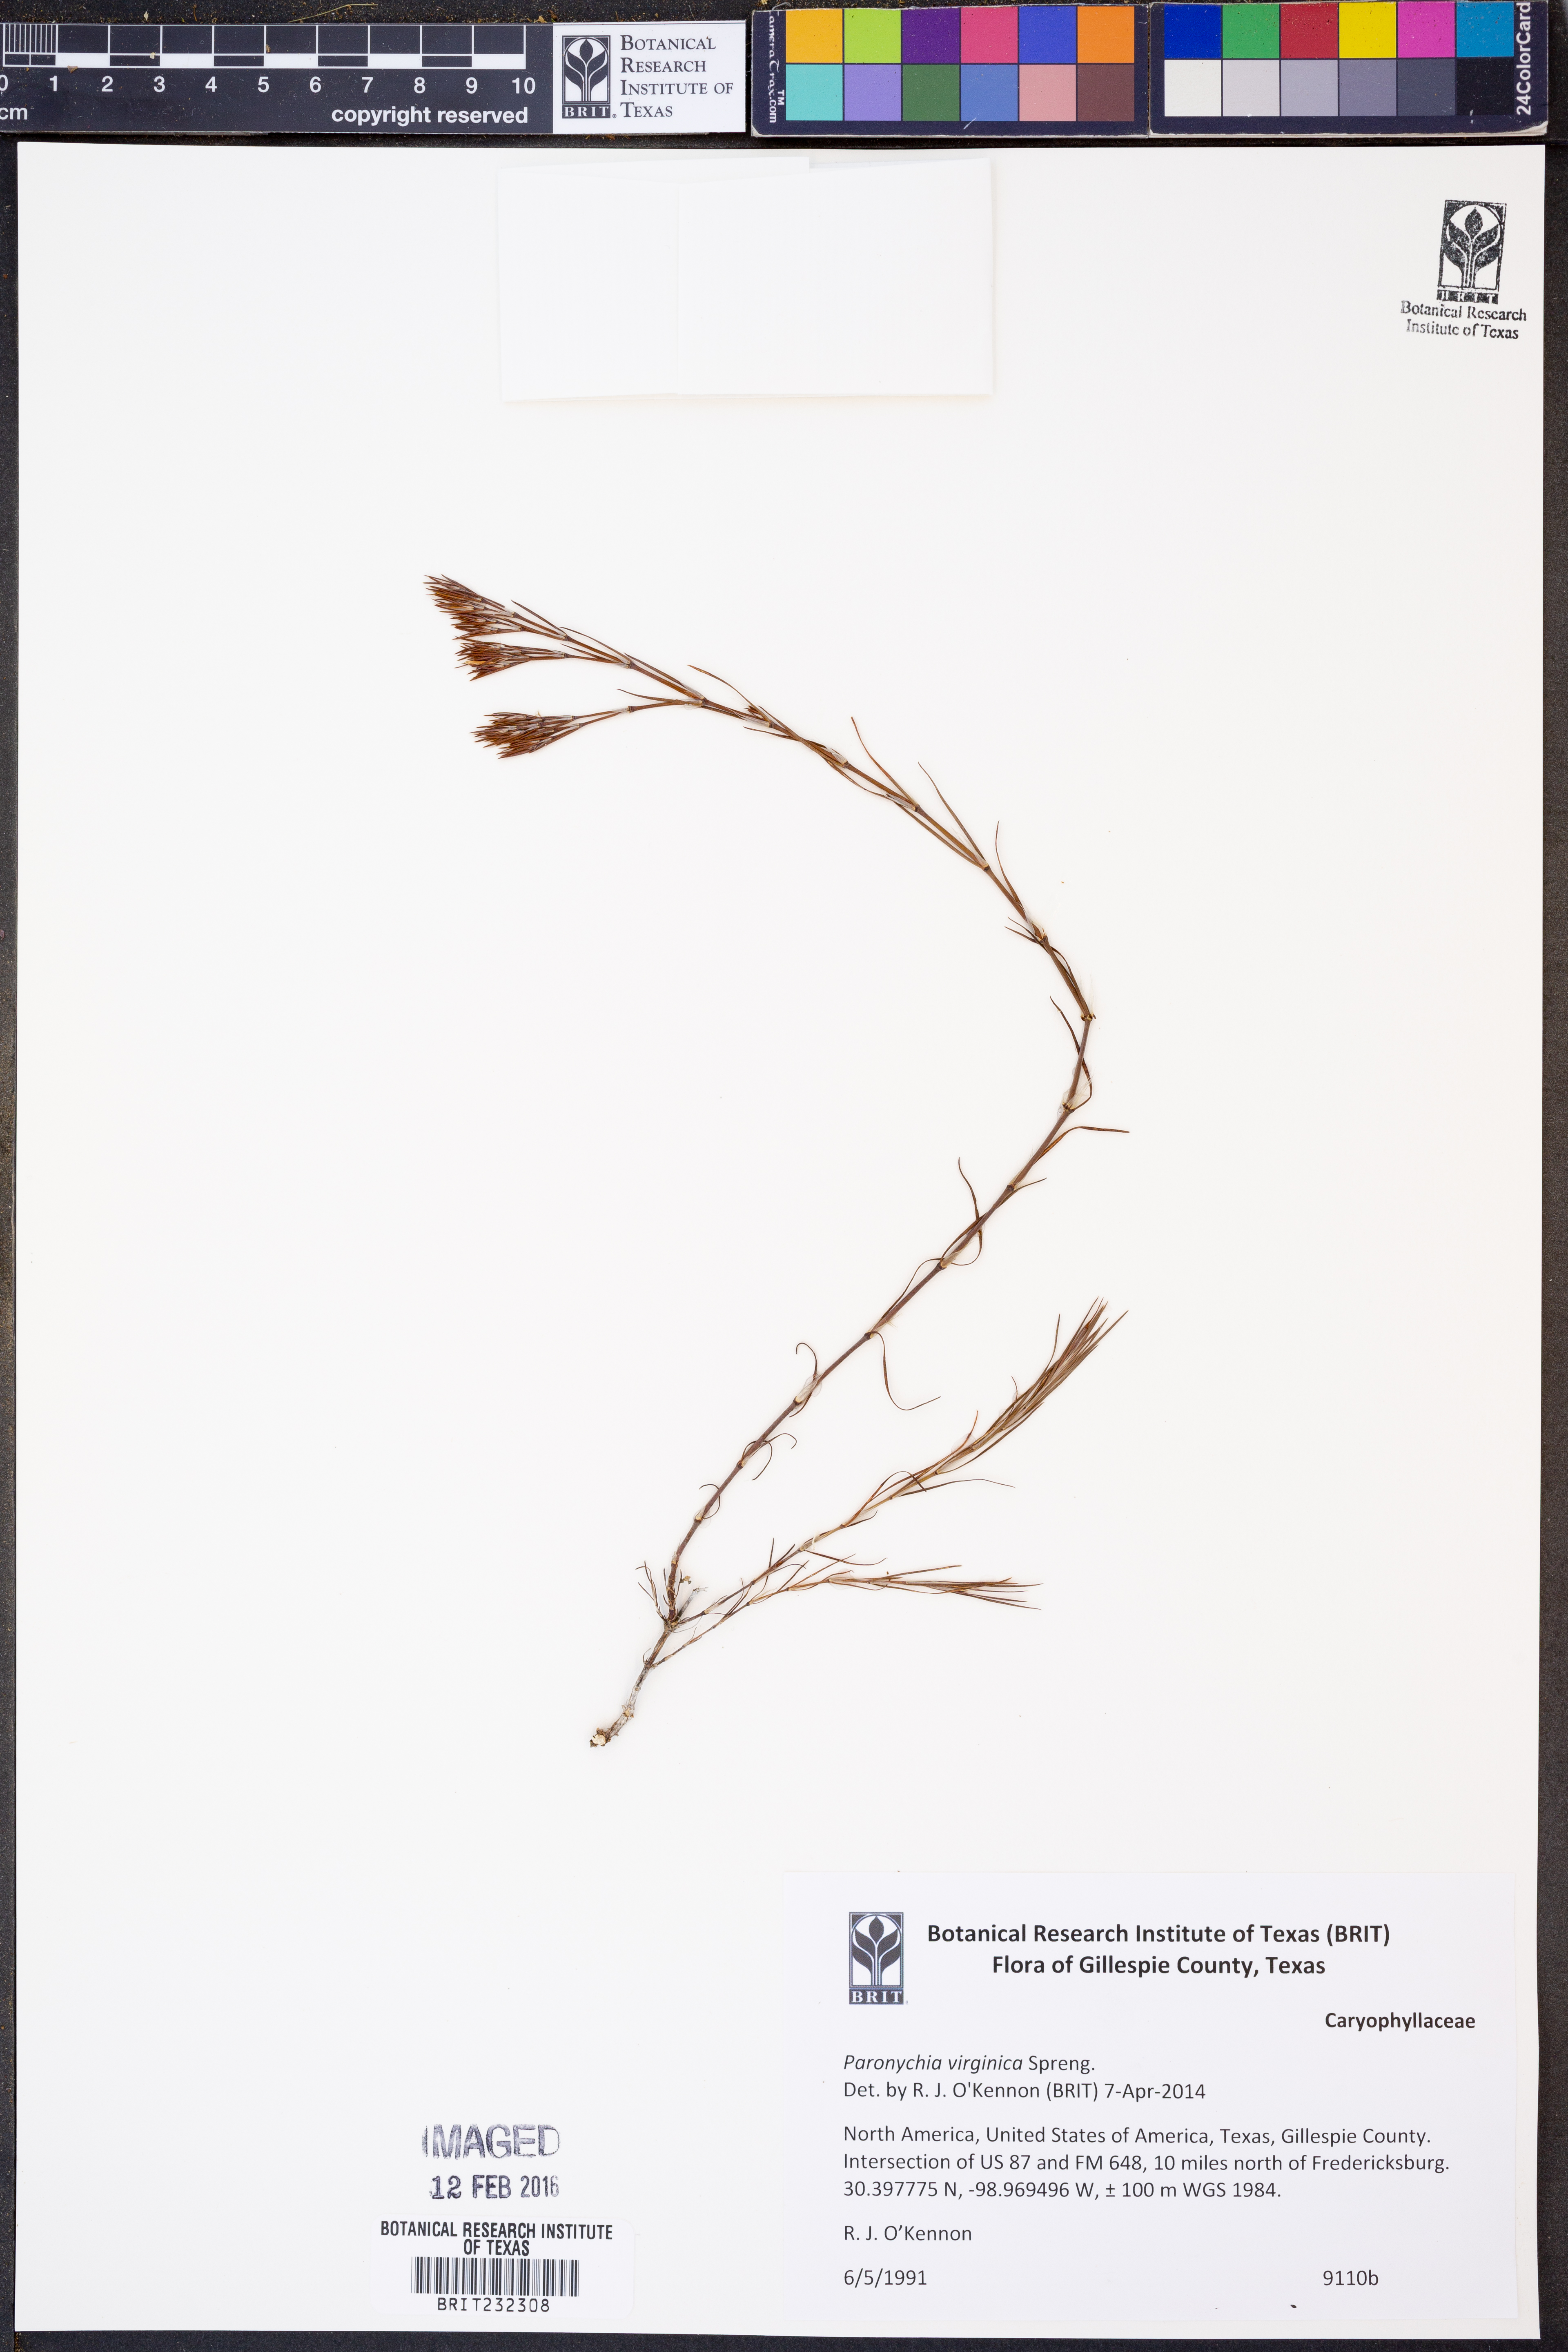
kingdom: Plantae
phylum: Tracheophyta
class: Magnoliopsida
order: Caryophyllales
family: Caryophyllaceae
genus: Paronychia
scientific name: Paronychia virginica
